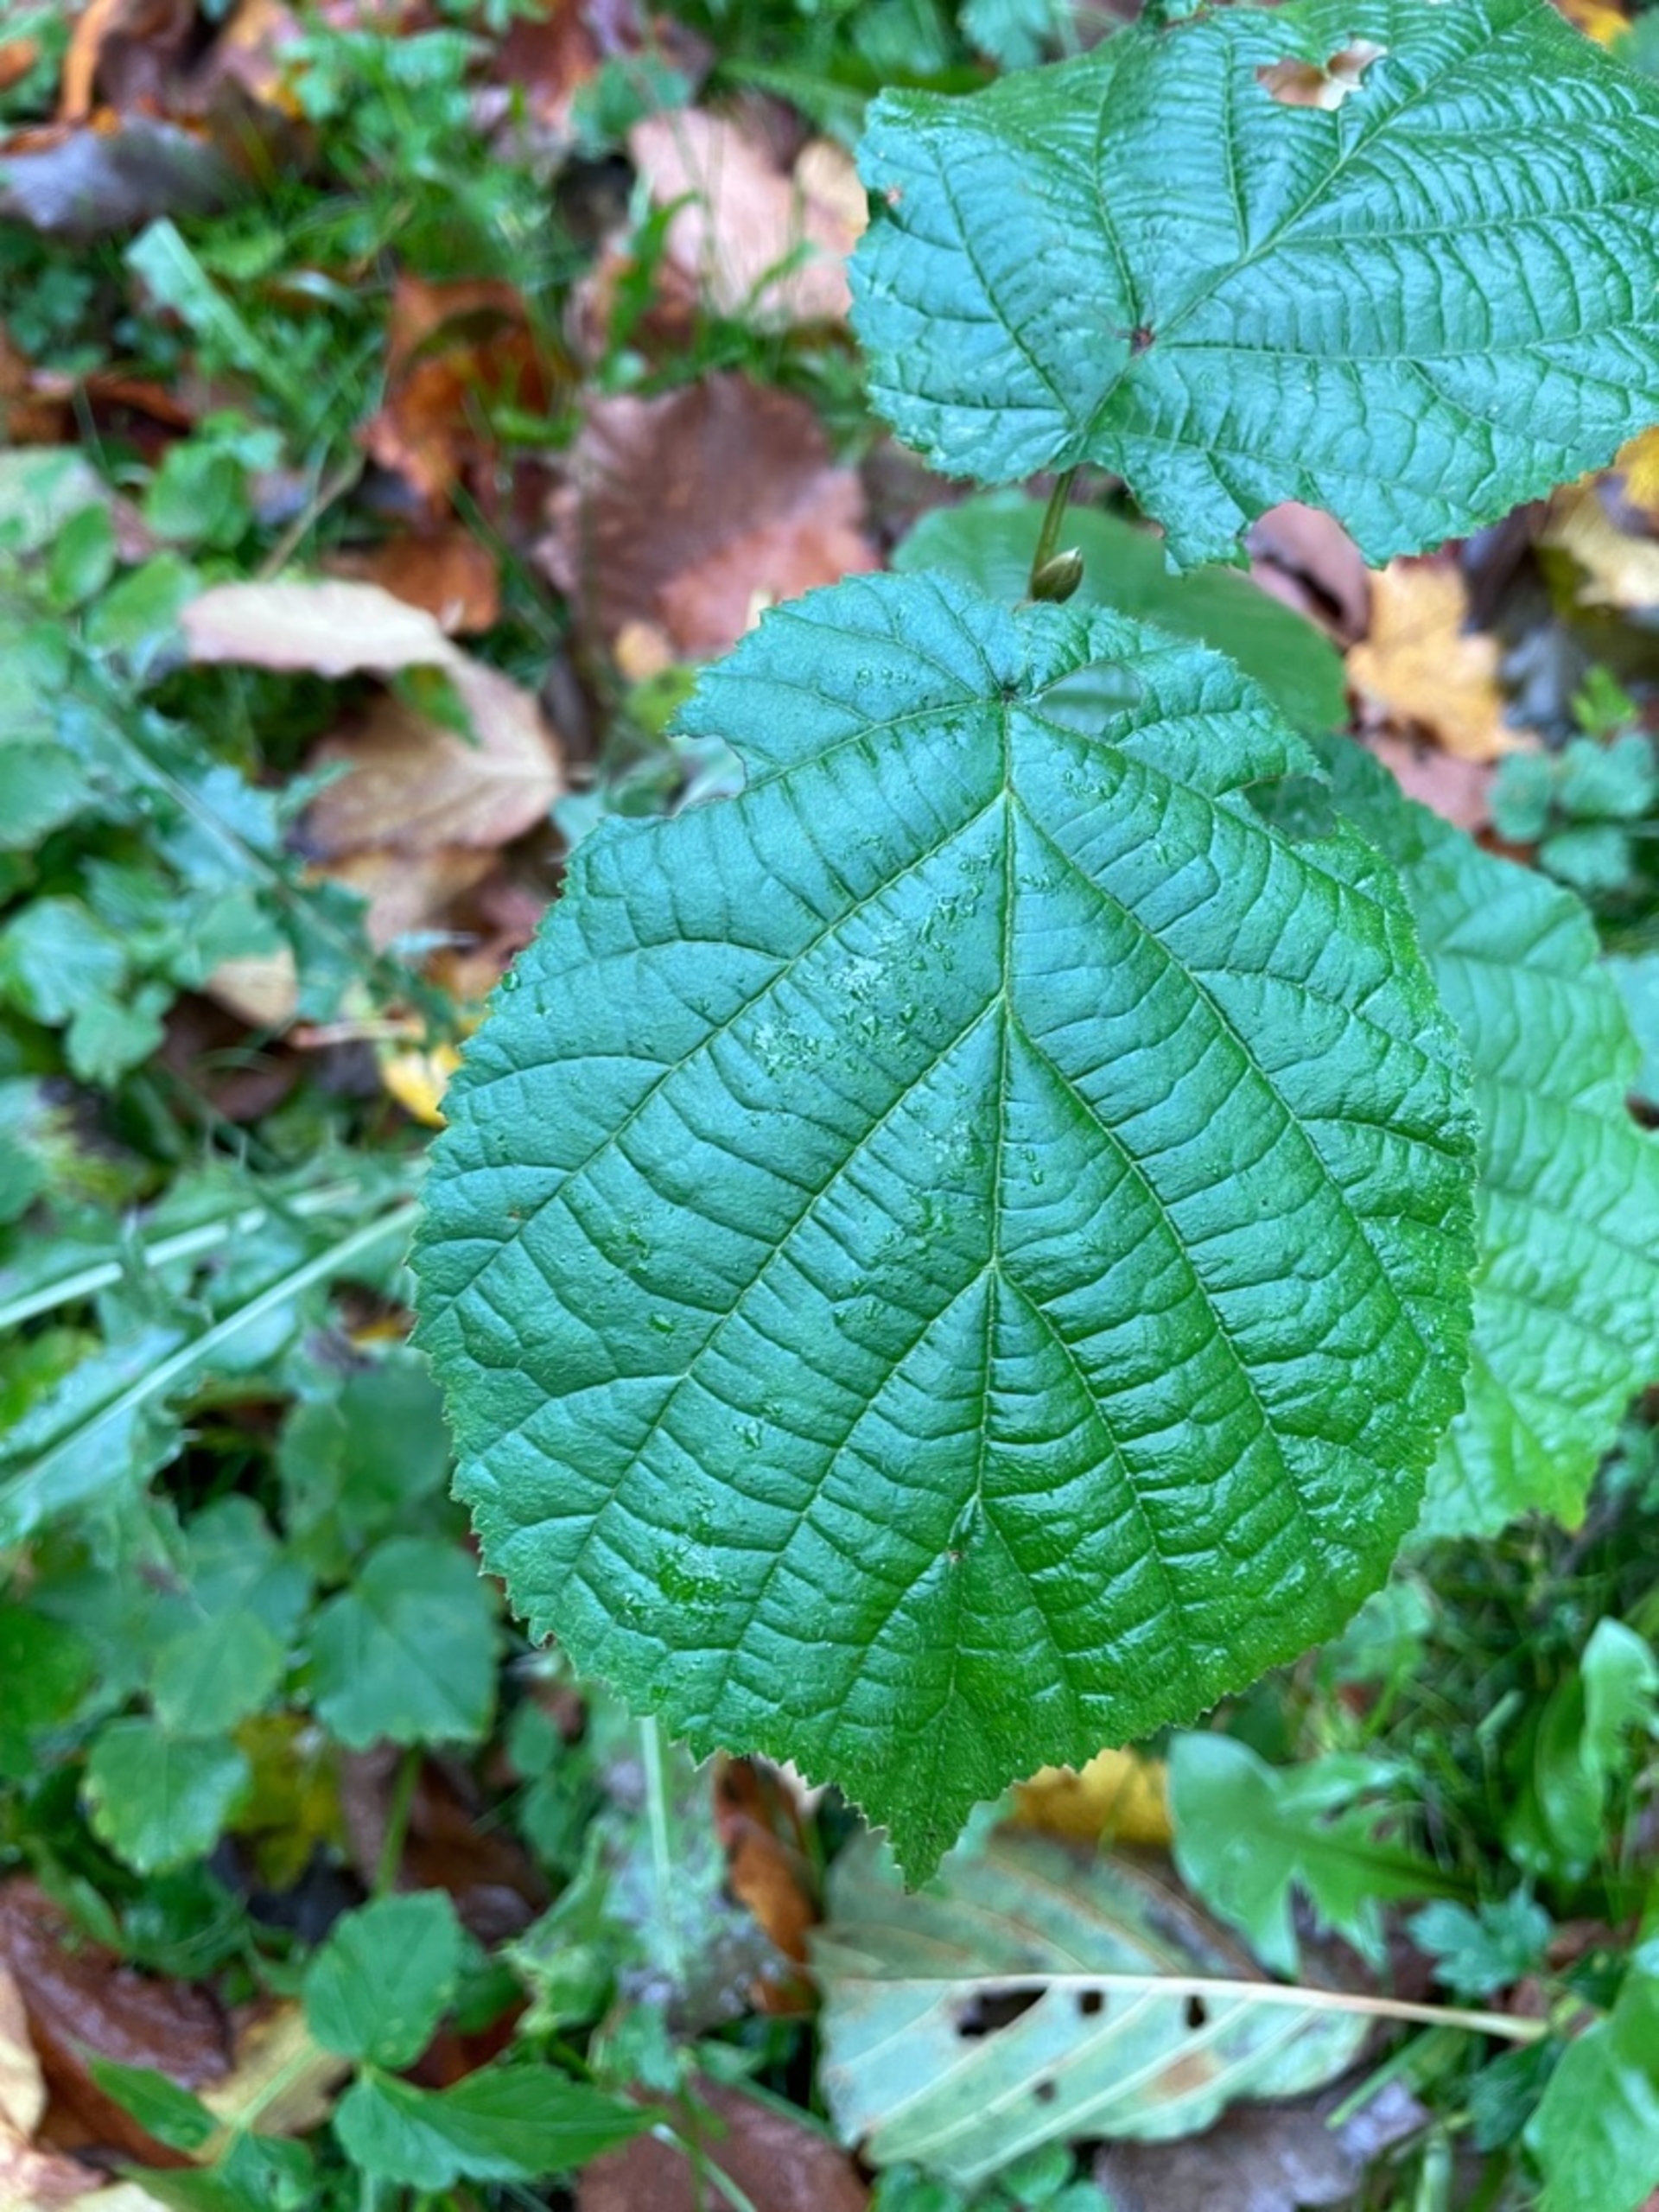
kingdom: Plantae
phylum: Tracheophyta
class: Magnoliopsida
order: Fagales
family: Betulaceae
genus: Corylus
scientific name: Corylus avellana
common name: Hassel
